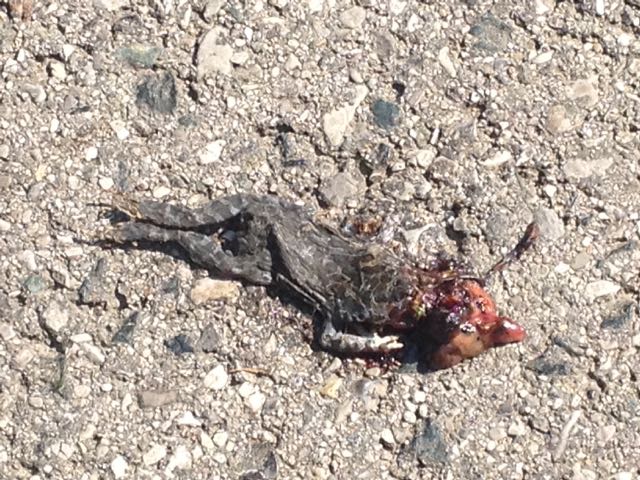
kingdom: Animalia
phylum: Chordata
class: Amphibia
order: Anura
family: Bufonidae
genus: Bufotes
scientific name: Bufotes viridis
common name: European green toad
